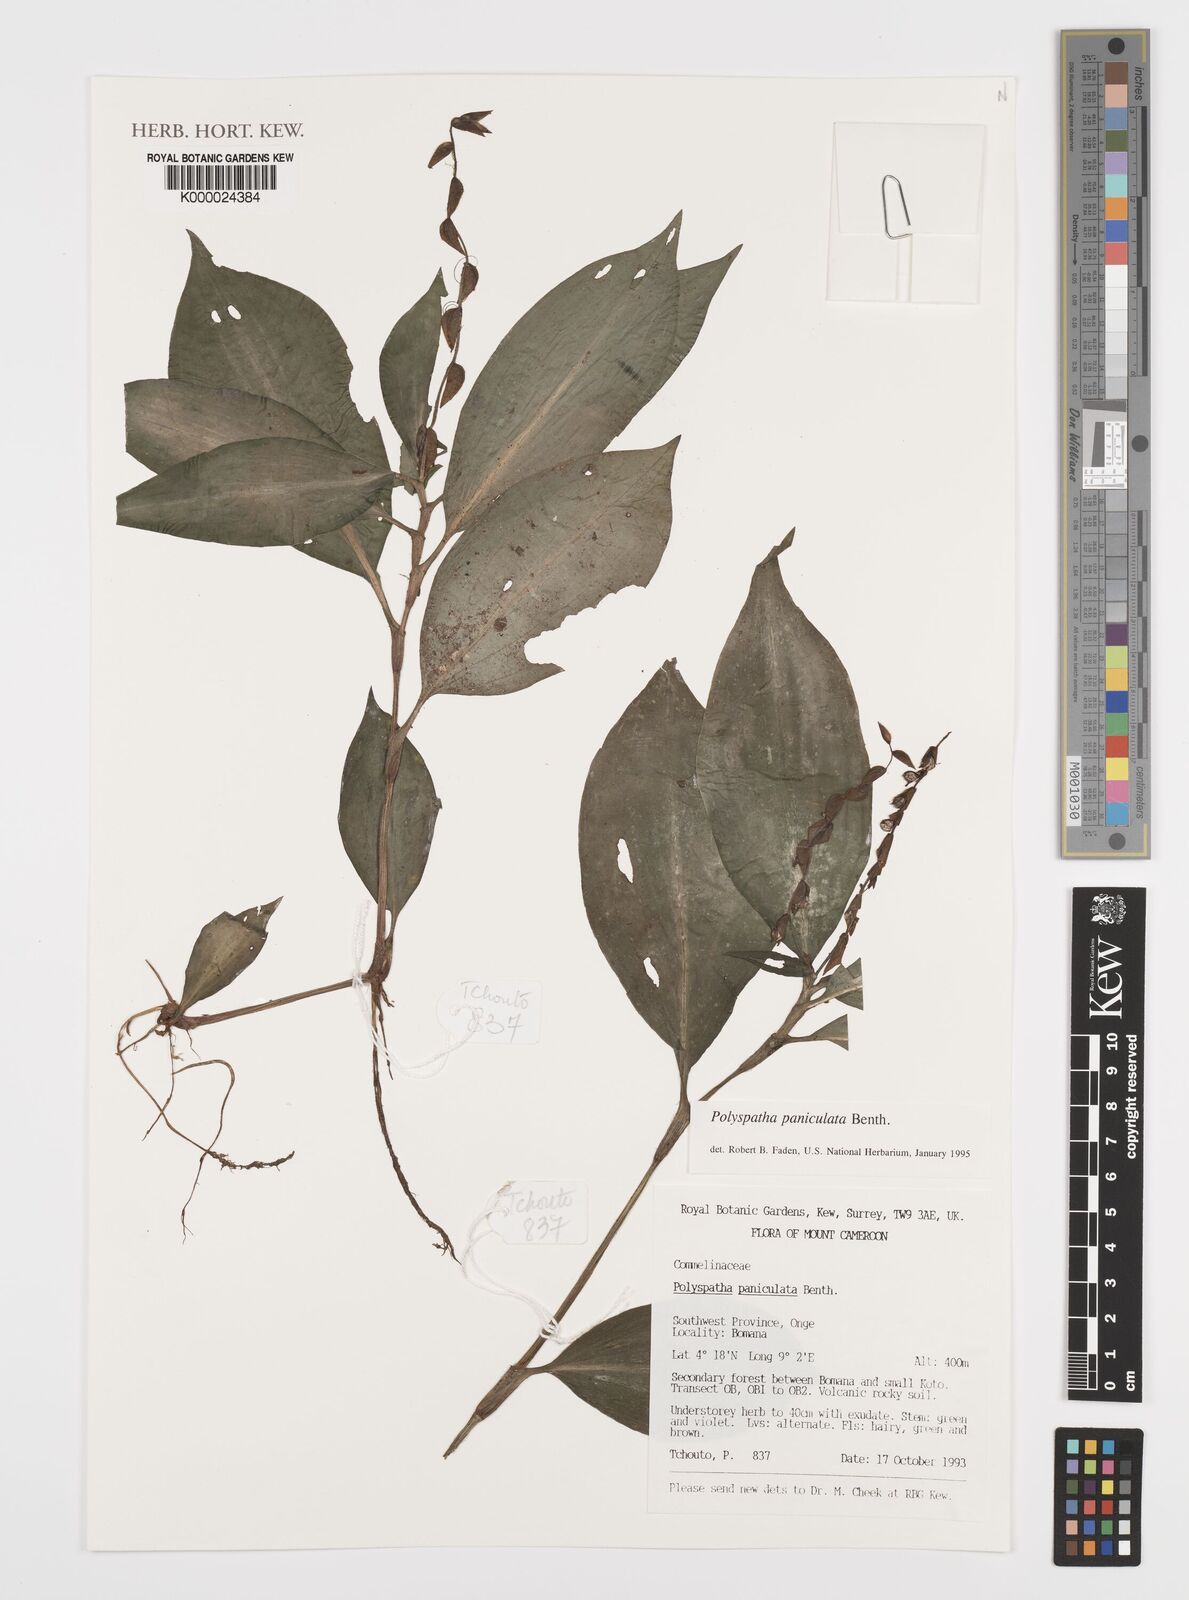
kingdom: Plantae
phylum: Tracheophyta
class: Liliopsida
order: Commelinales
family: Commelinaceae
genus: Polyspatha
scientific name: Polyspatha paniculata
